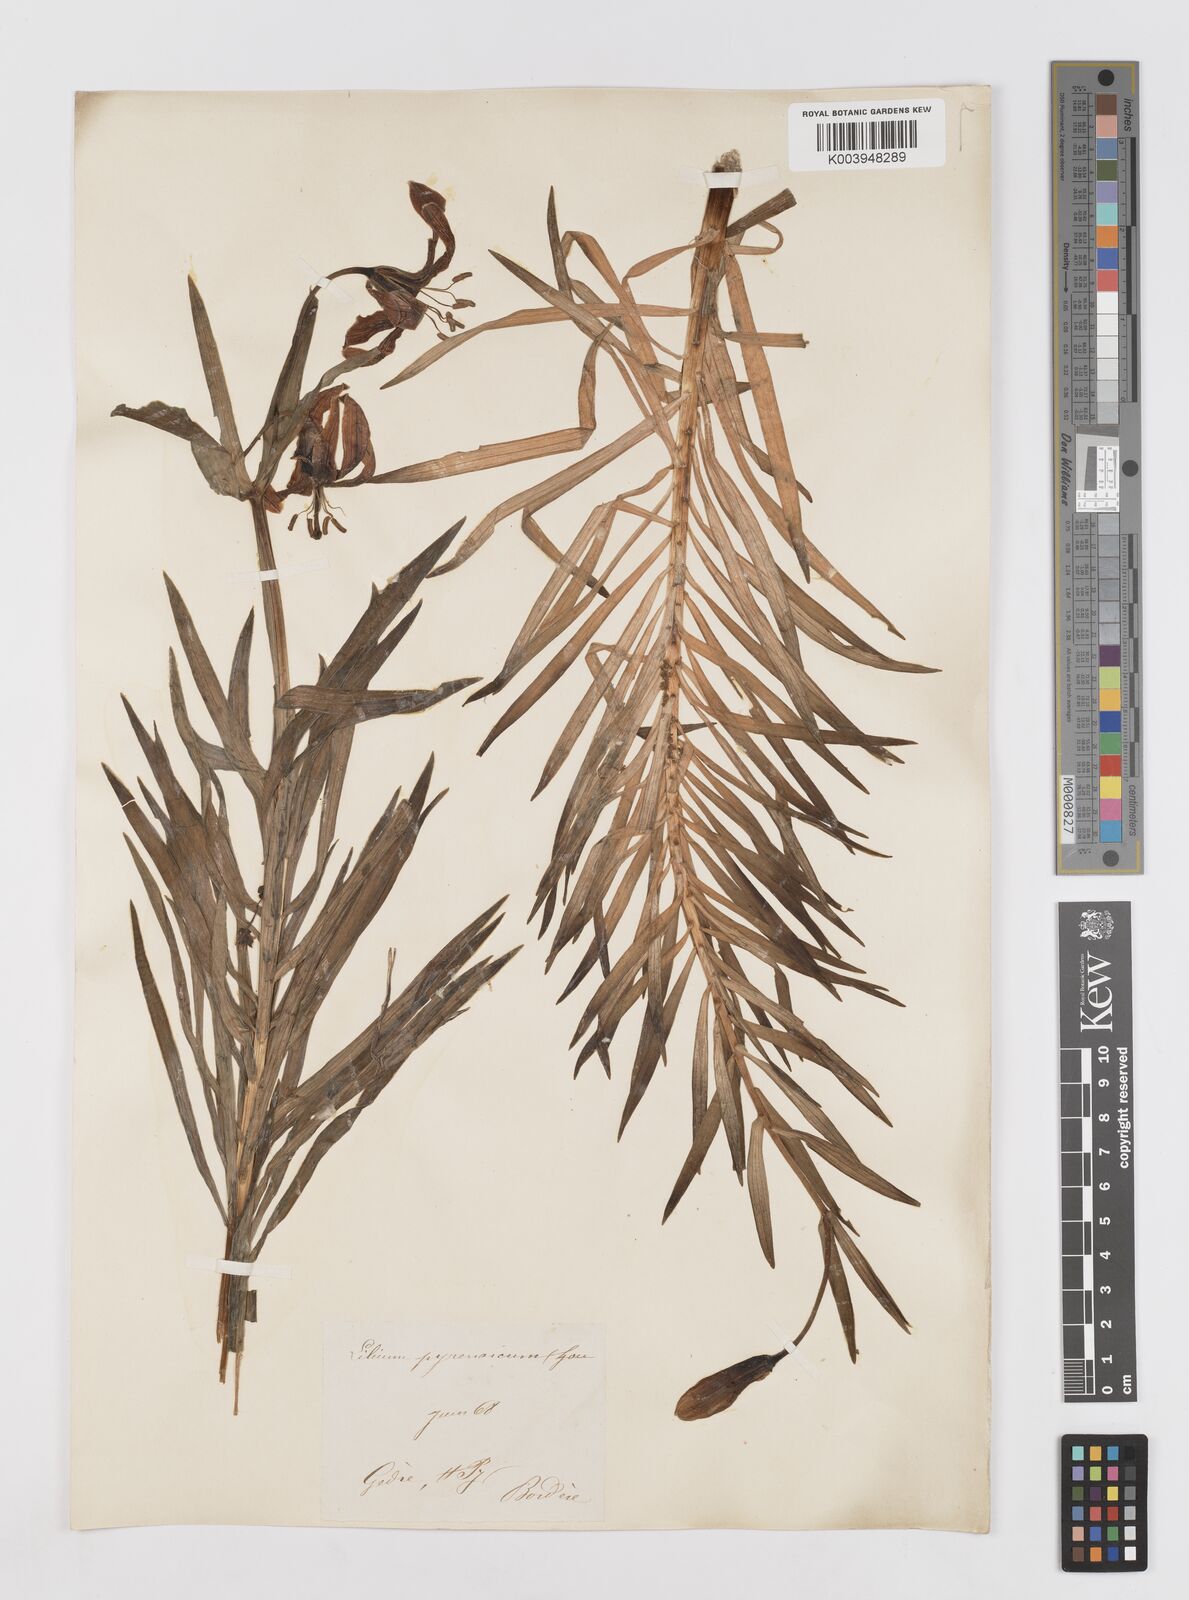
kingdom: Plantae
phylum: Tracheophyta
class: Liliopsida
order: Liliales
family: Liliaceae
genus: Lilium
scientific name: Lilium pyrenaicum
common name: Pyrenean lily
